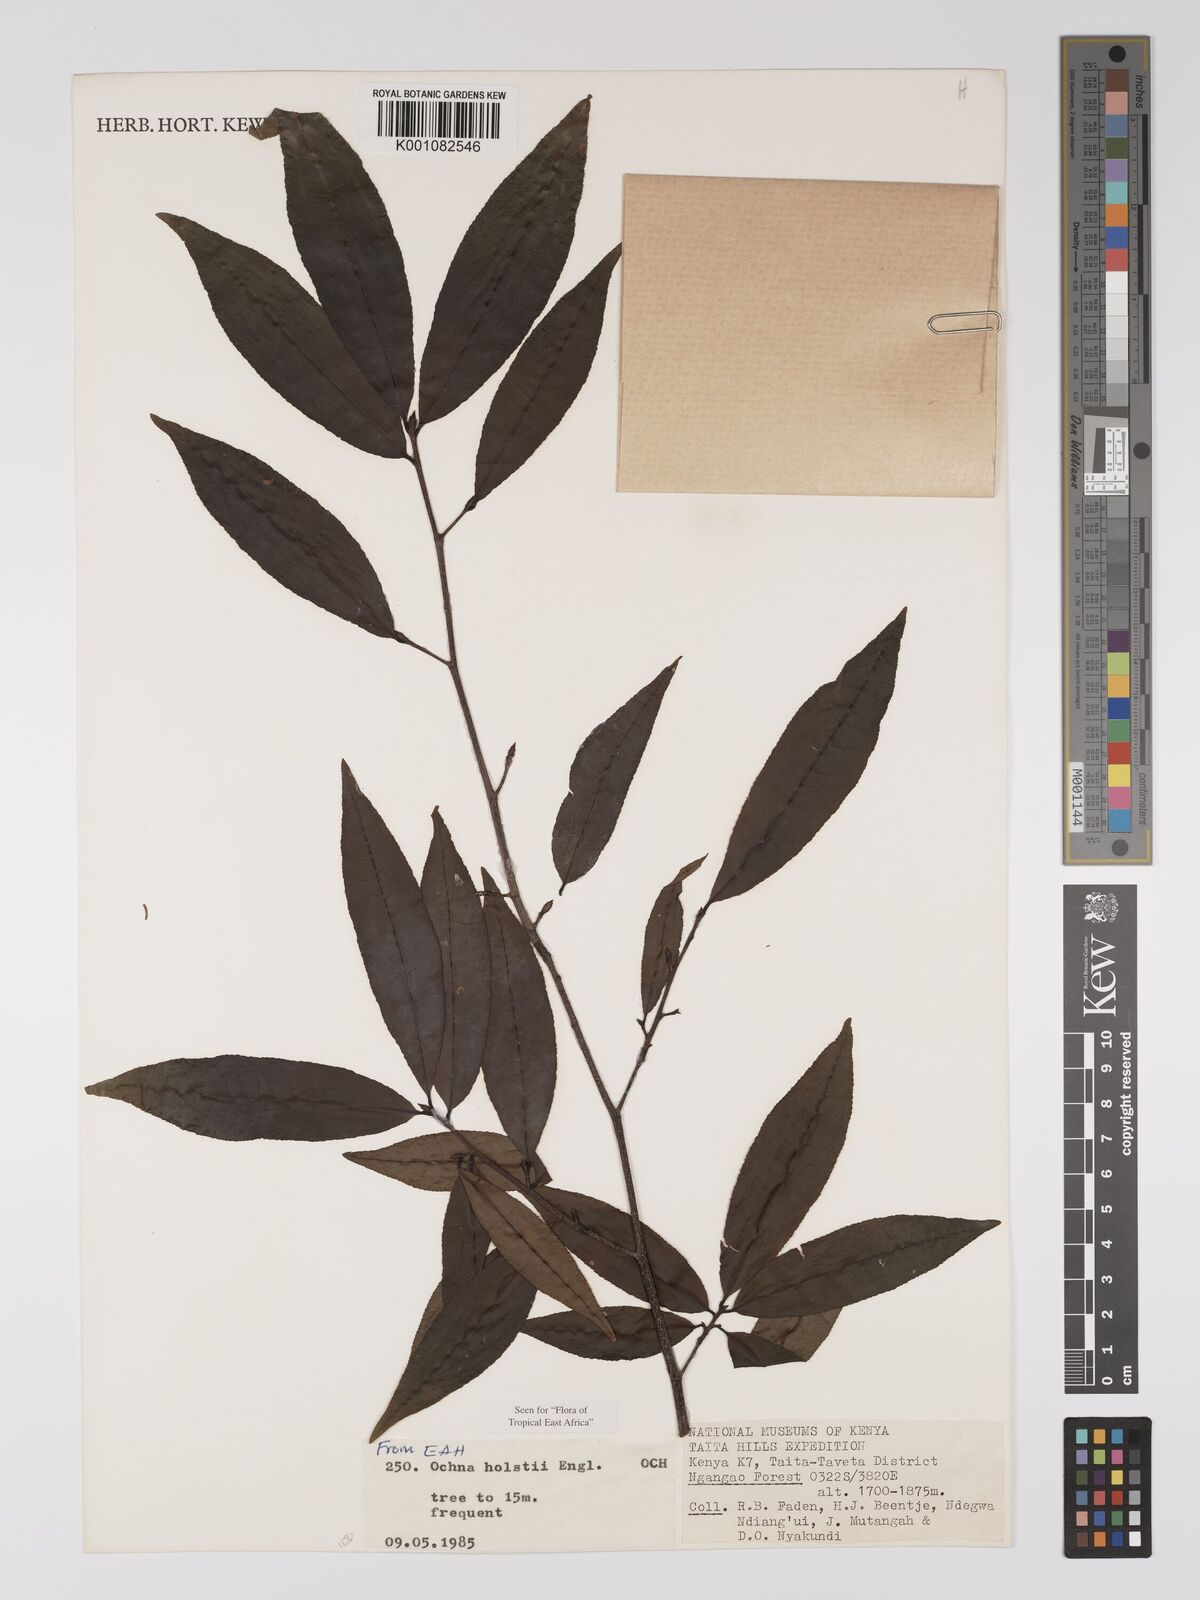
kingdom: Plantae
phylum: Tracheophyta
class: Magnoliopsida
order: Malpighiales
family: Ochnaceae
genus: Ochna
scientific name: Ochna holstii
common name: Red ironwood
